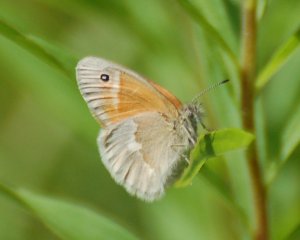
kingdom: Animalia
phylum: Arthropoda
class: Insecta
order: Lepidoptera
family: Nymphalidae
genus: Coenonympha
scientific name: Coenonympha tullia
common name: Large Heath
